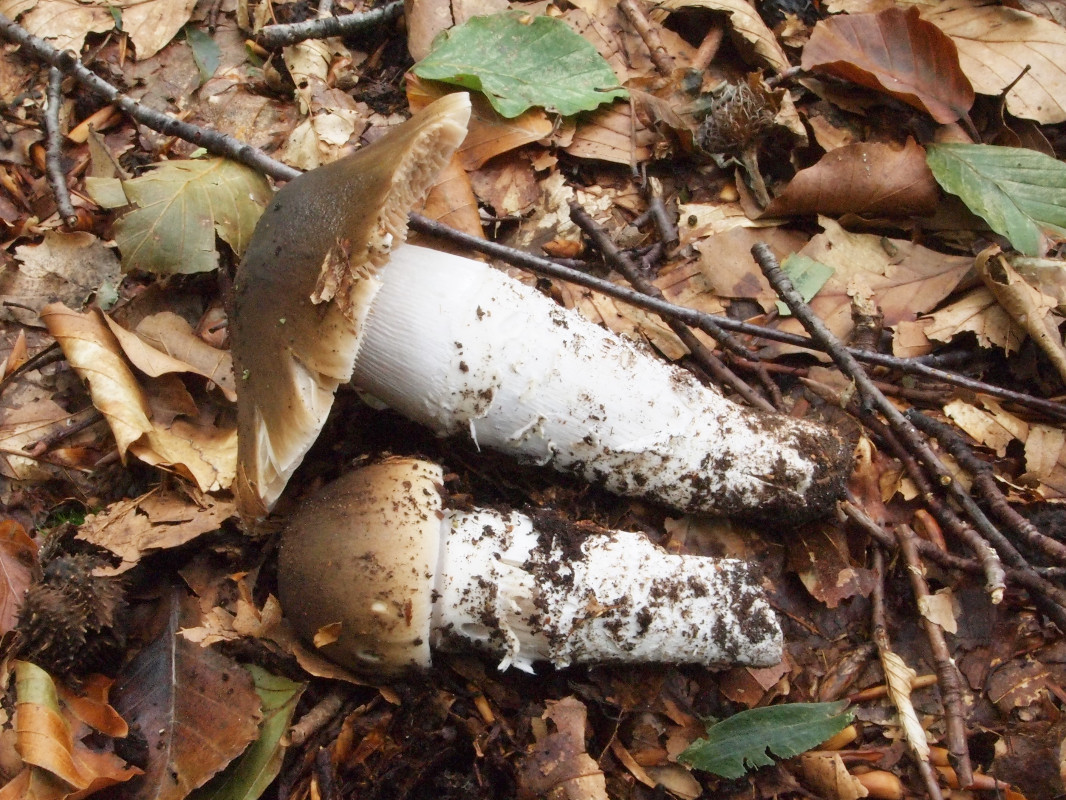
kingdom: Fungi
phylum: Basidiomycota
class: Agaricomycetes
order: Agaricales
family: Cortinariaceae
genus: Cortinarius
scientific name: Cortinarius elatior
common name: høj slørhat
